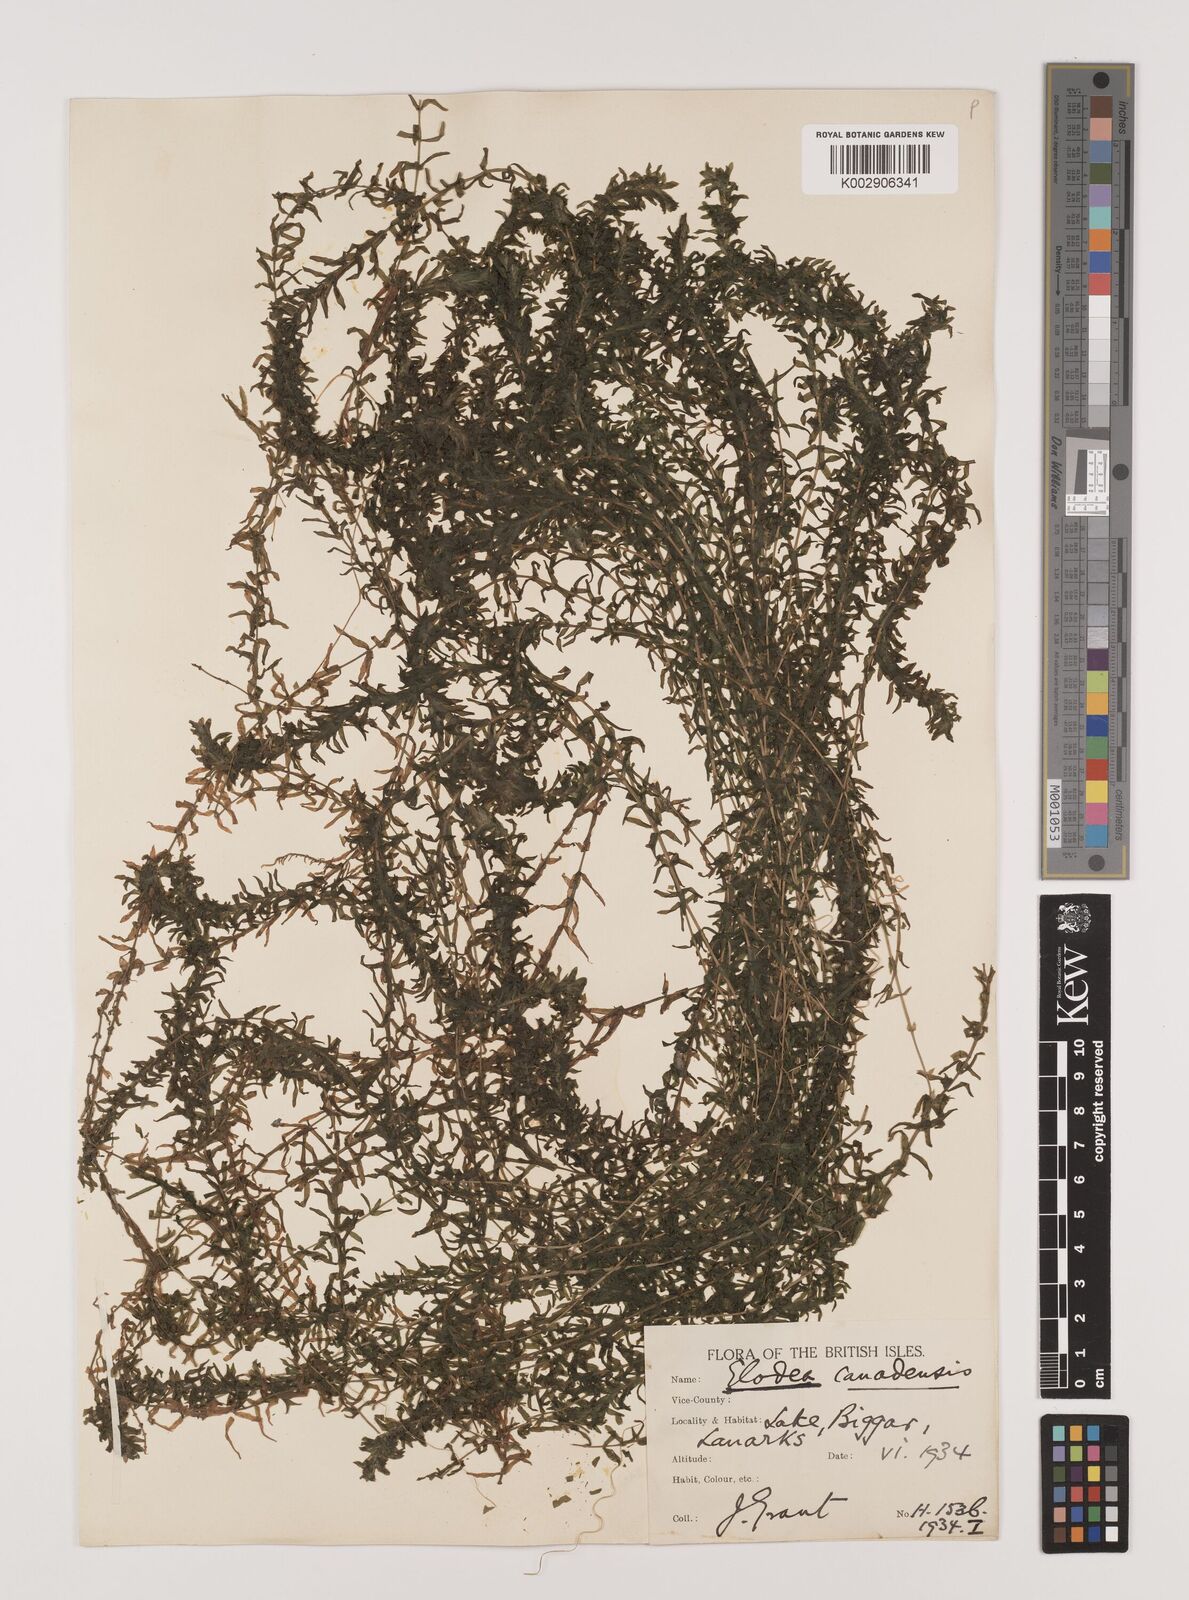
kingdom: Plantae
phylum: Tracheophyta
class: Liliopsida
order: Alismatales
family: Hydrocharitaceae
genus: Elodea
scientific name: Elodea canadensis
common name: Canadian waterweed
